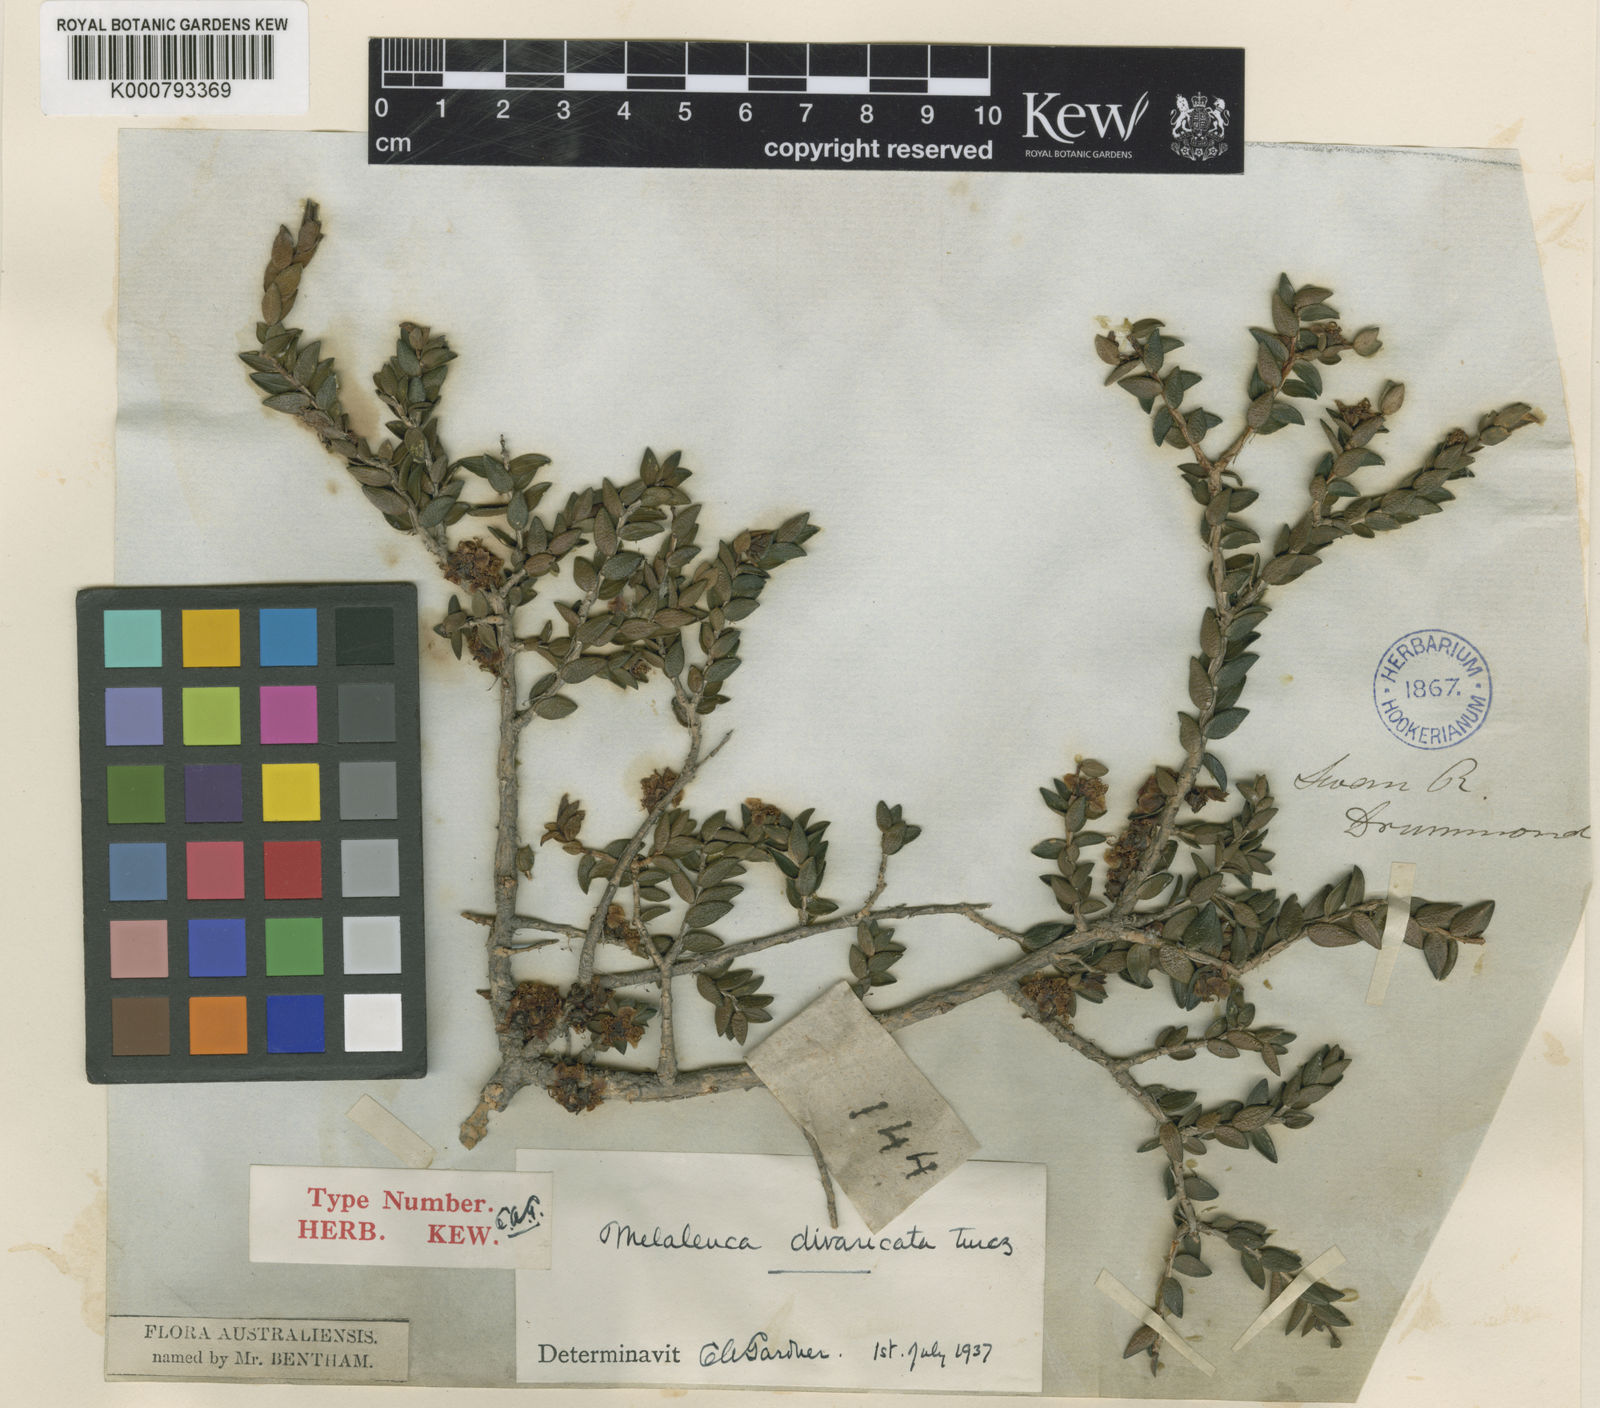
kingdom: Plantae
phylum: Tracheophyta
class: Magnoliopsida
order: Myrtales
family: Myrtaceae
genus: Melaleuca
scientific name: Melaleuca violacea
